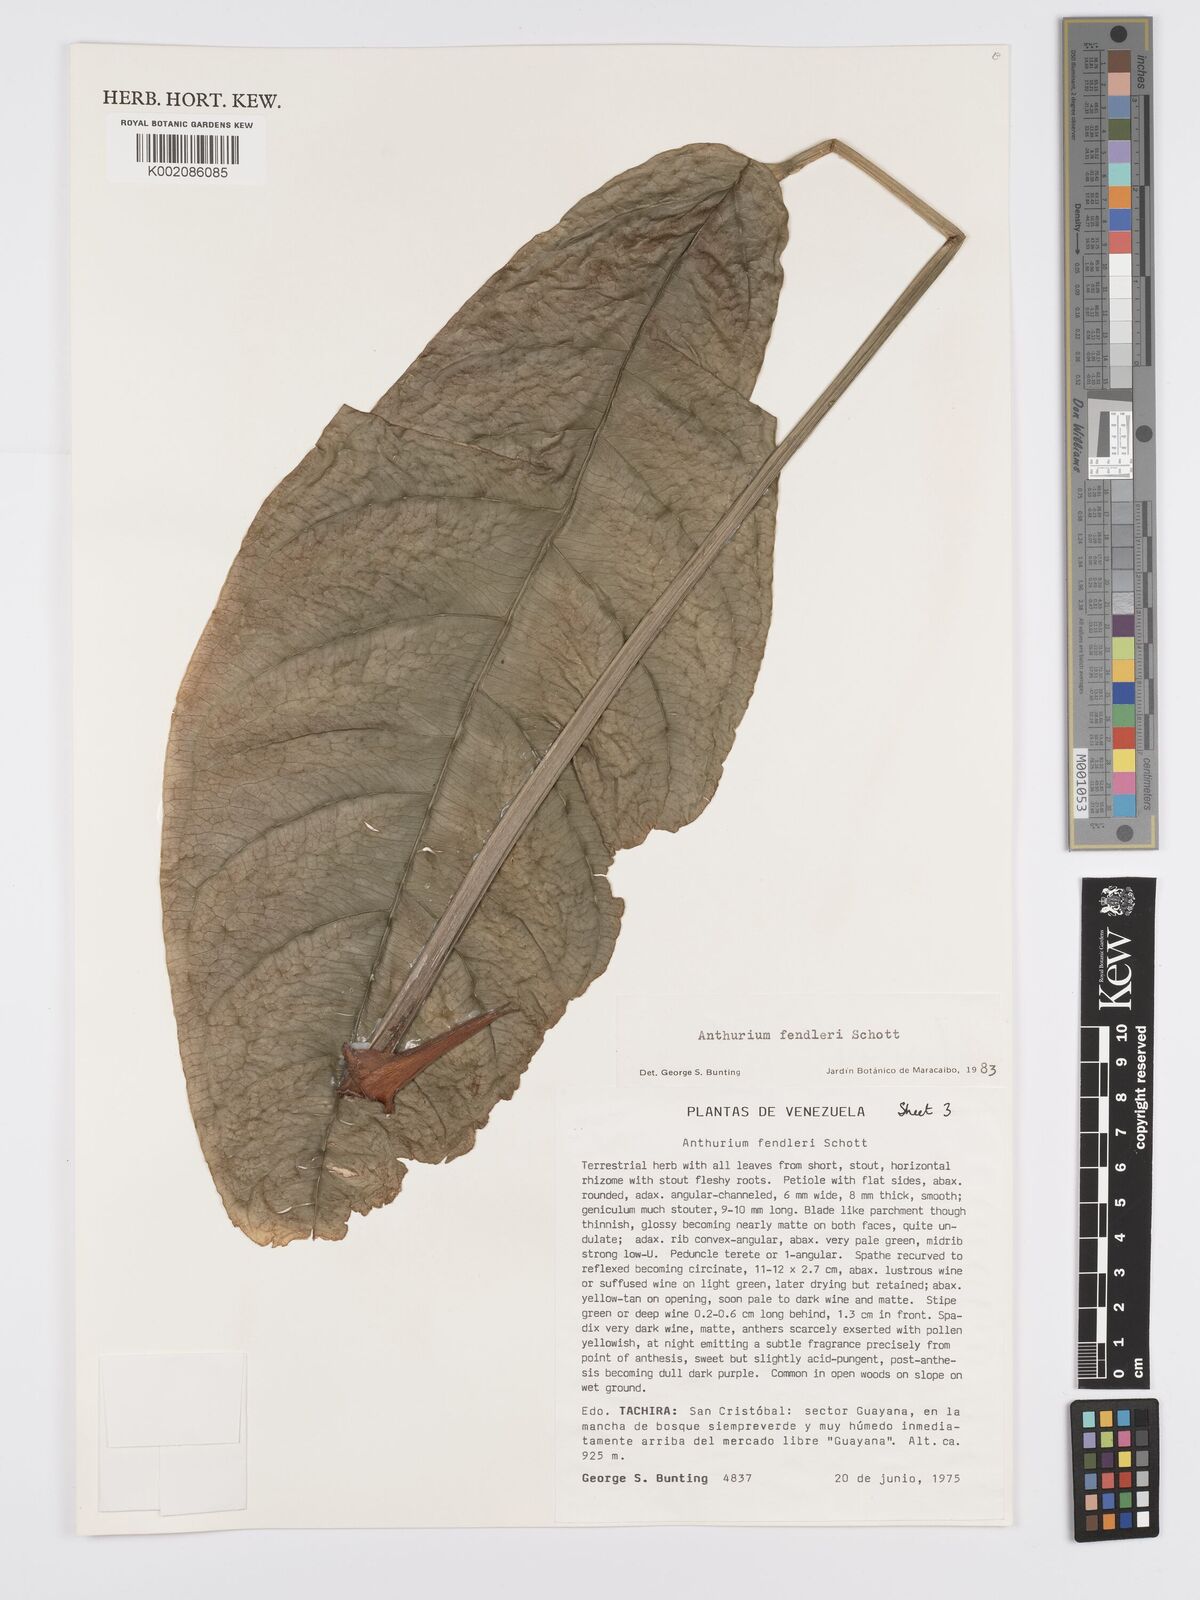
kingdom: Plantae
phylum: Tracheophyta
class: Liliopsida
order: Alismatales
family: Araceae
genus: Anthurium
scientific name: Anthurium fendleri
